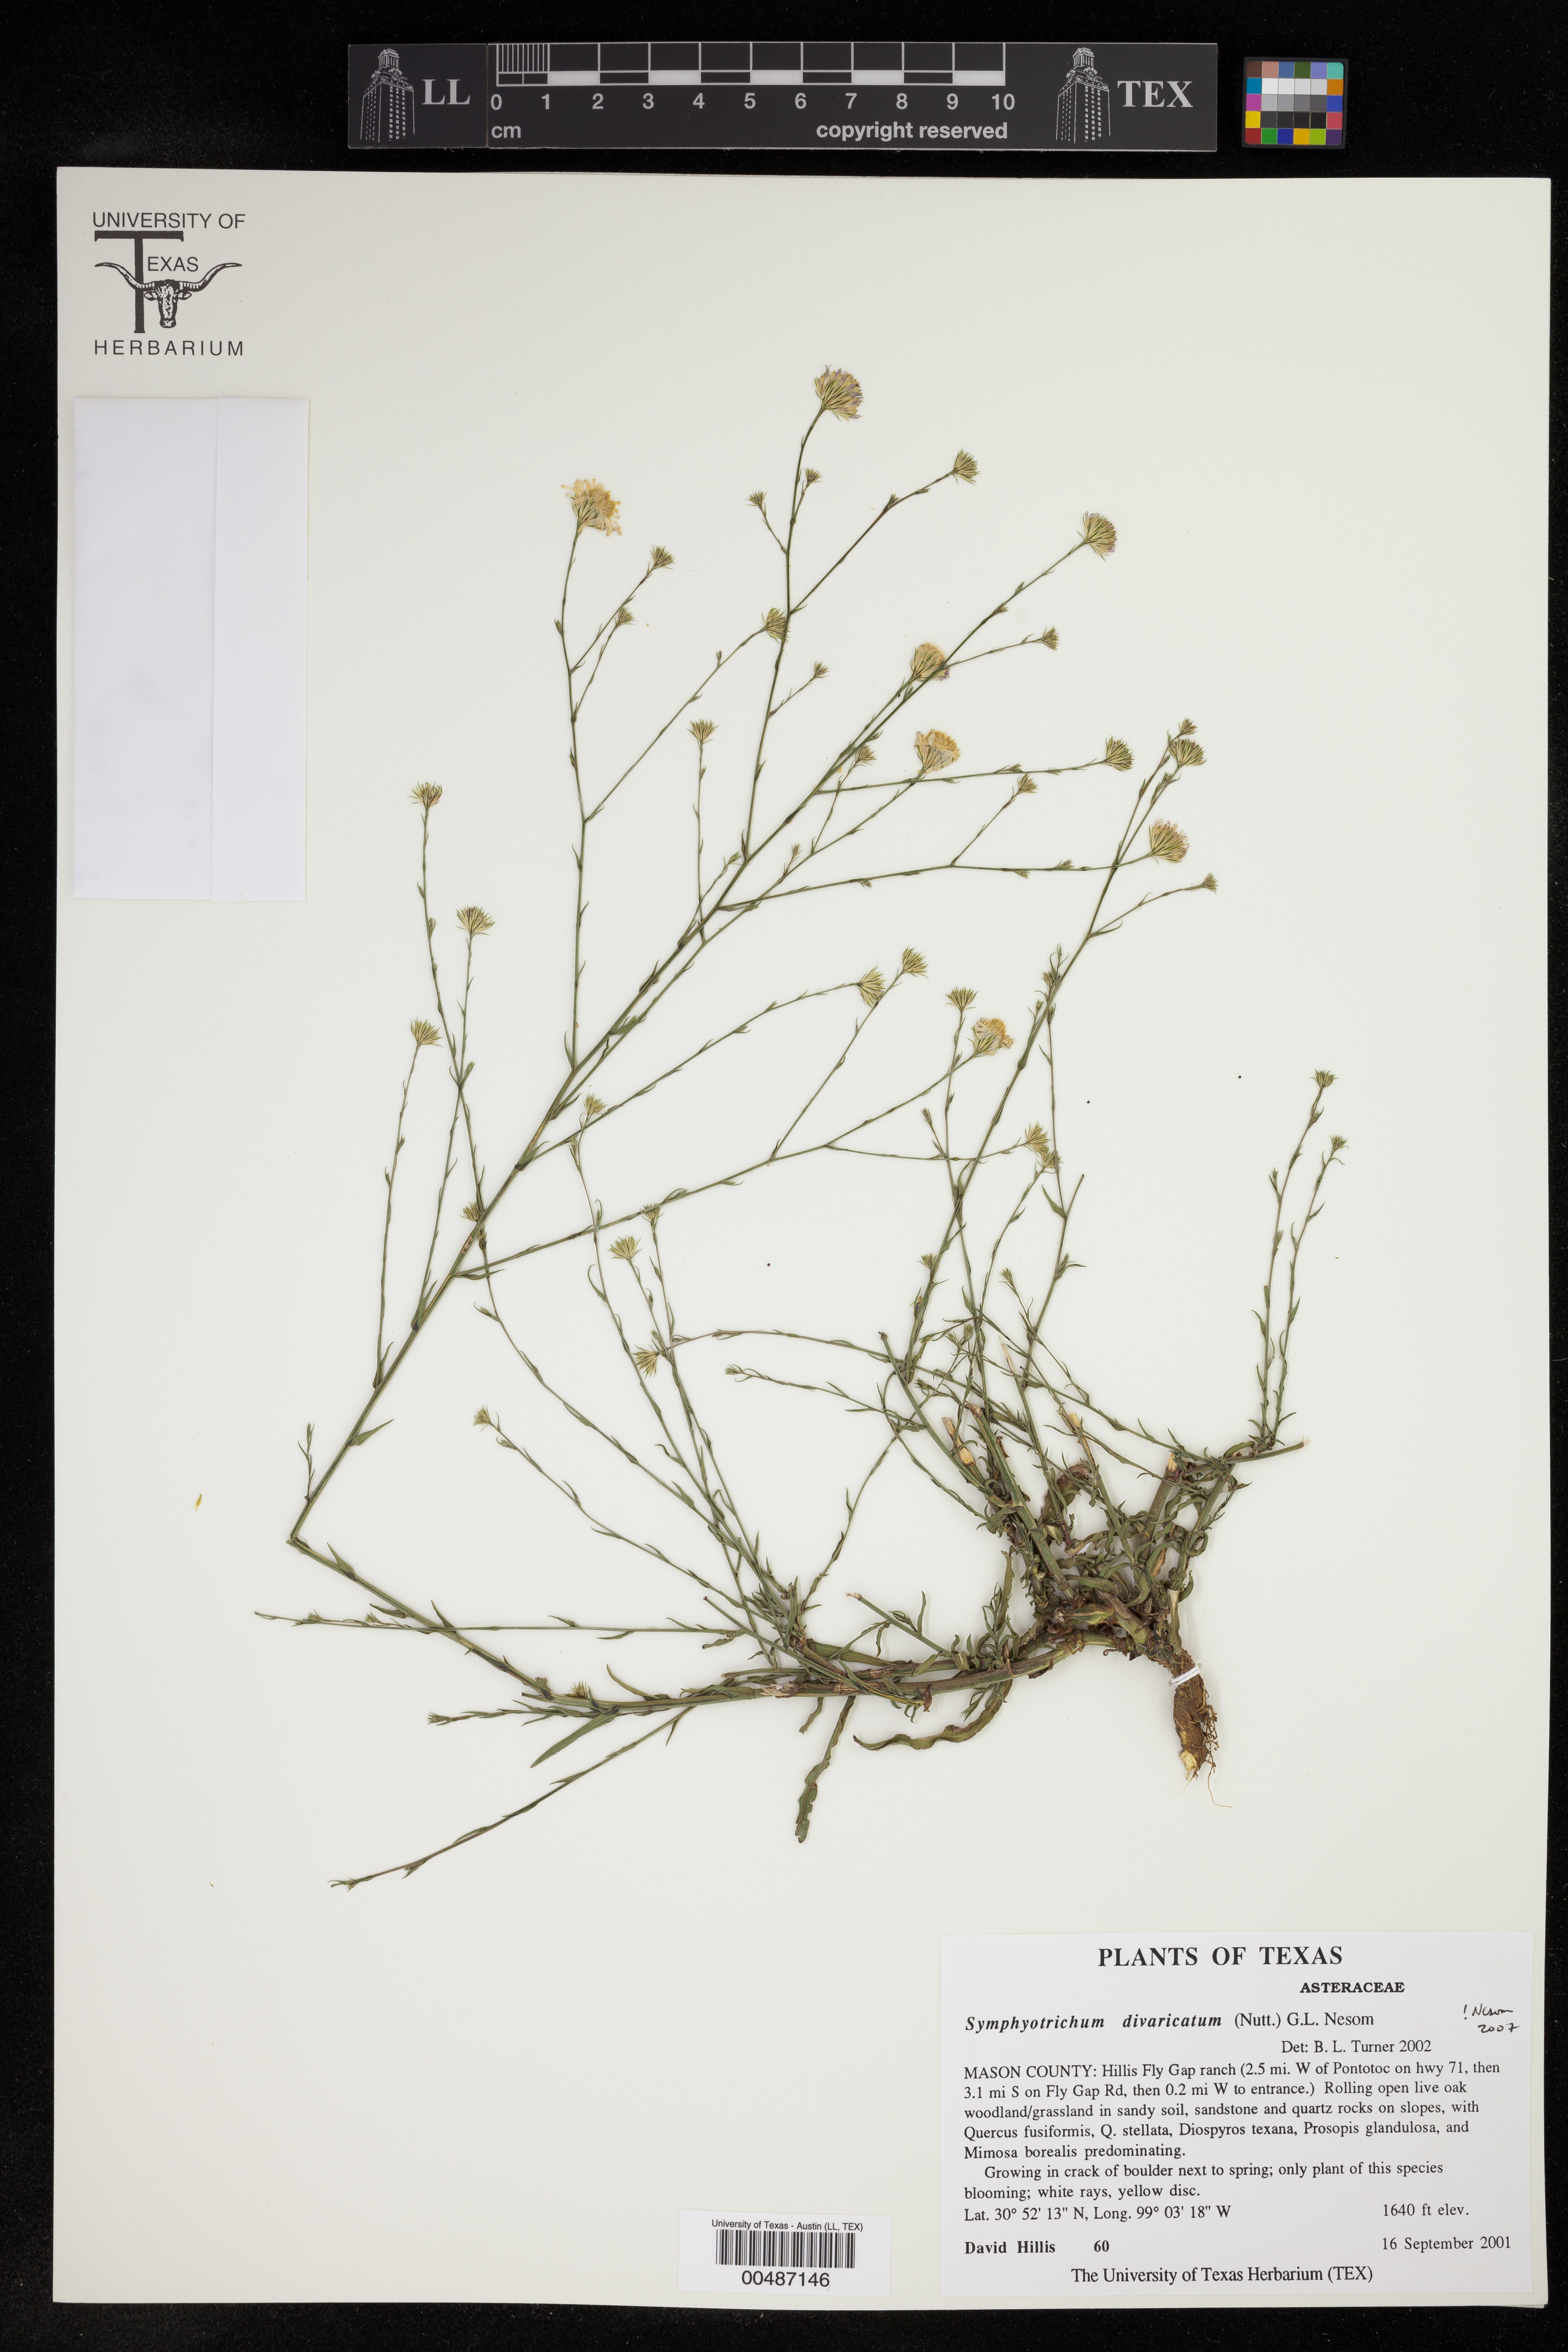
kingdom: Plantae
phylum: Tracheophyta
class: Magnoliopsida
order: Asterales
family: Asteraceae
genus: Symphyotrichum
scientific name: Symphyotrichum divaricatum
